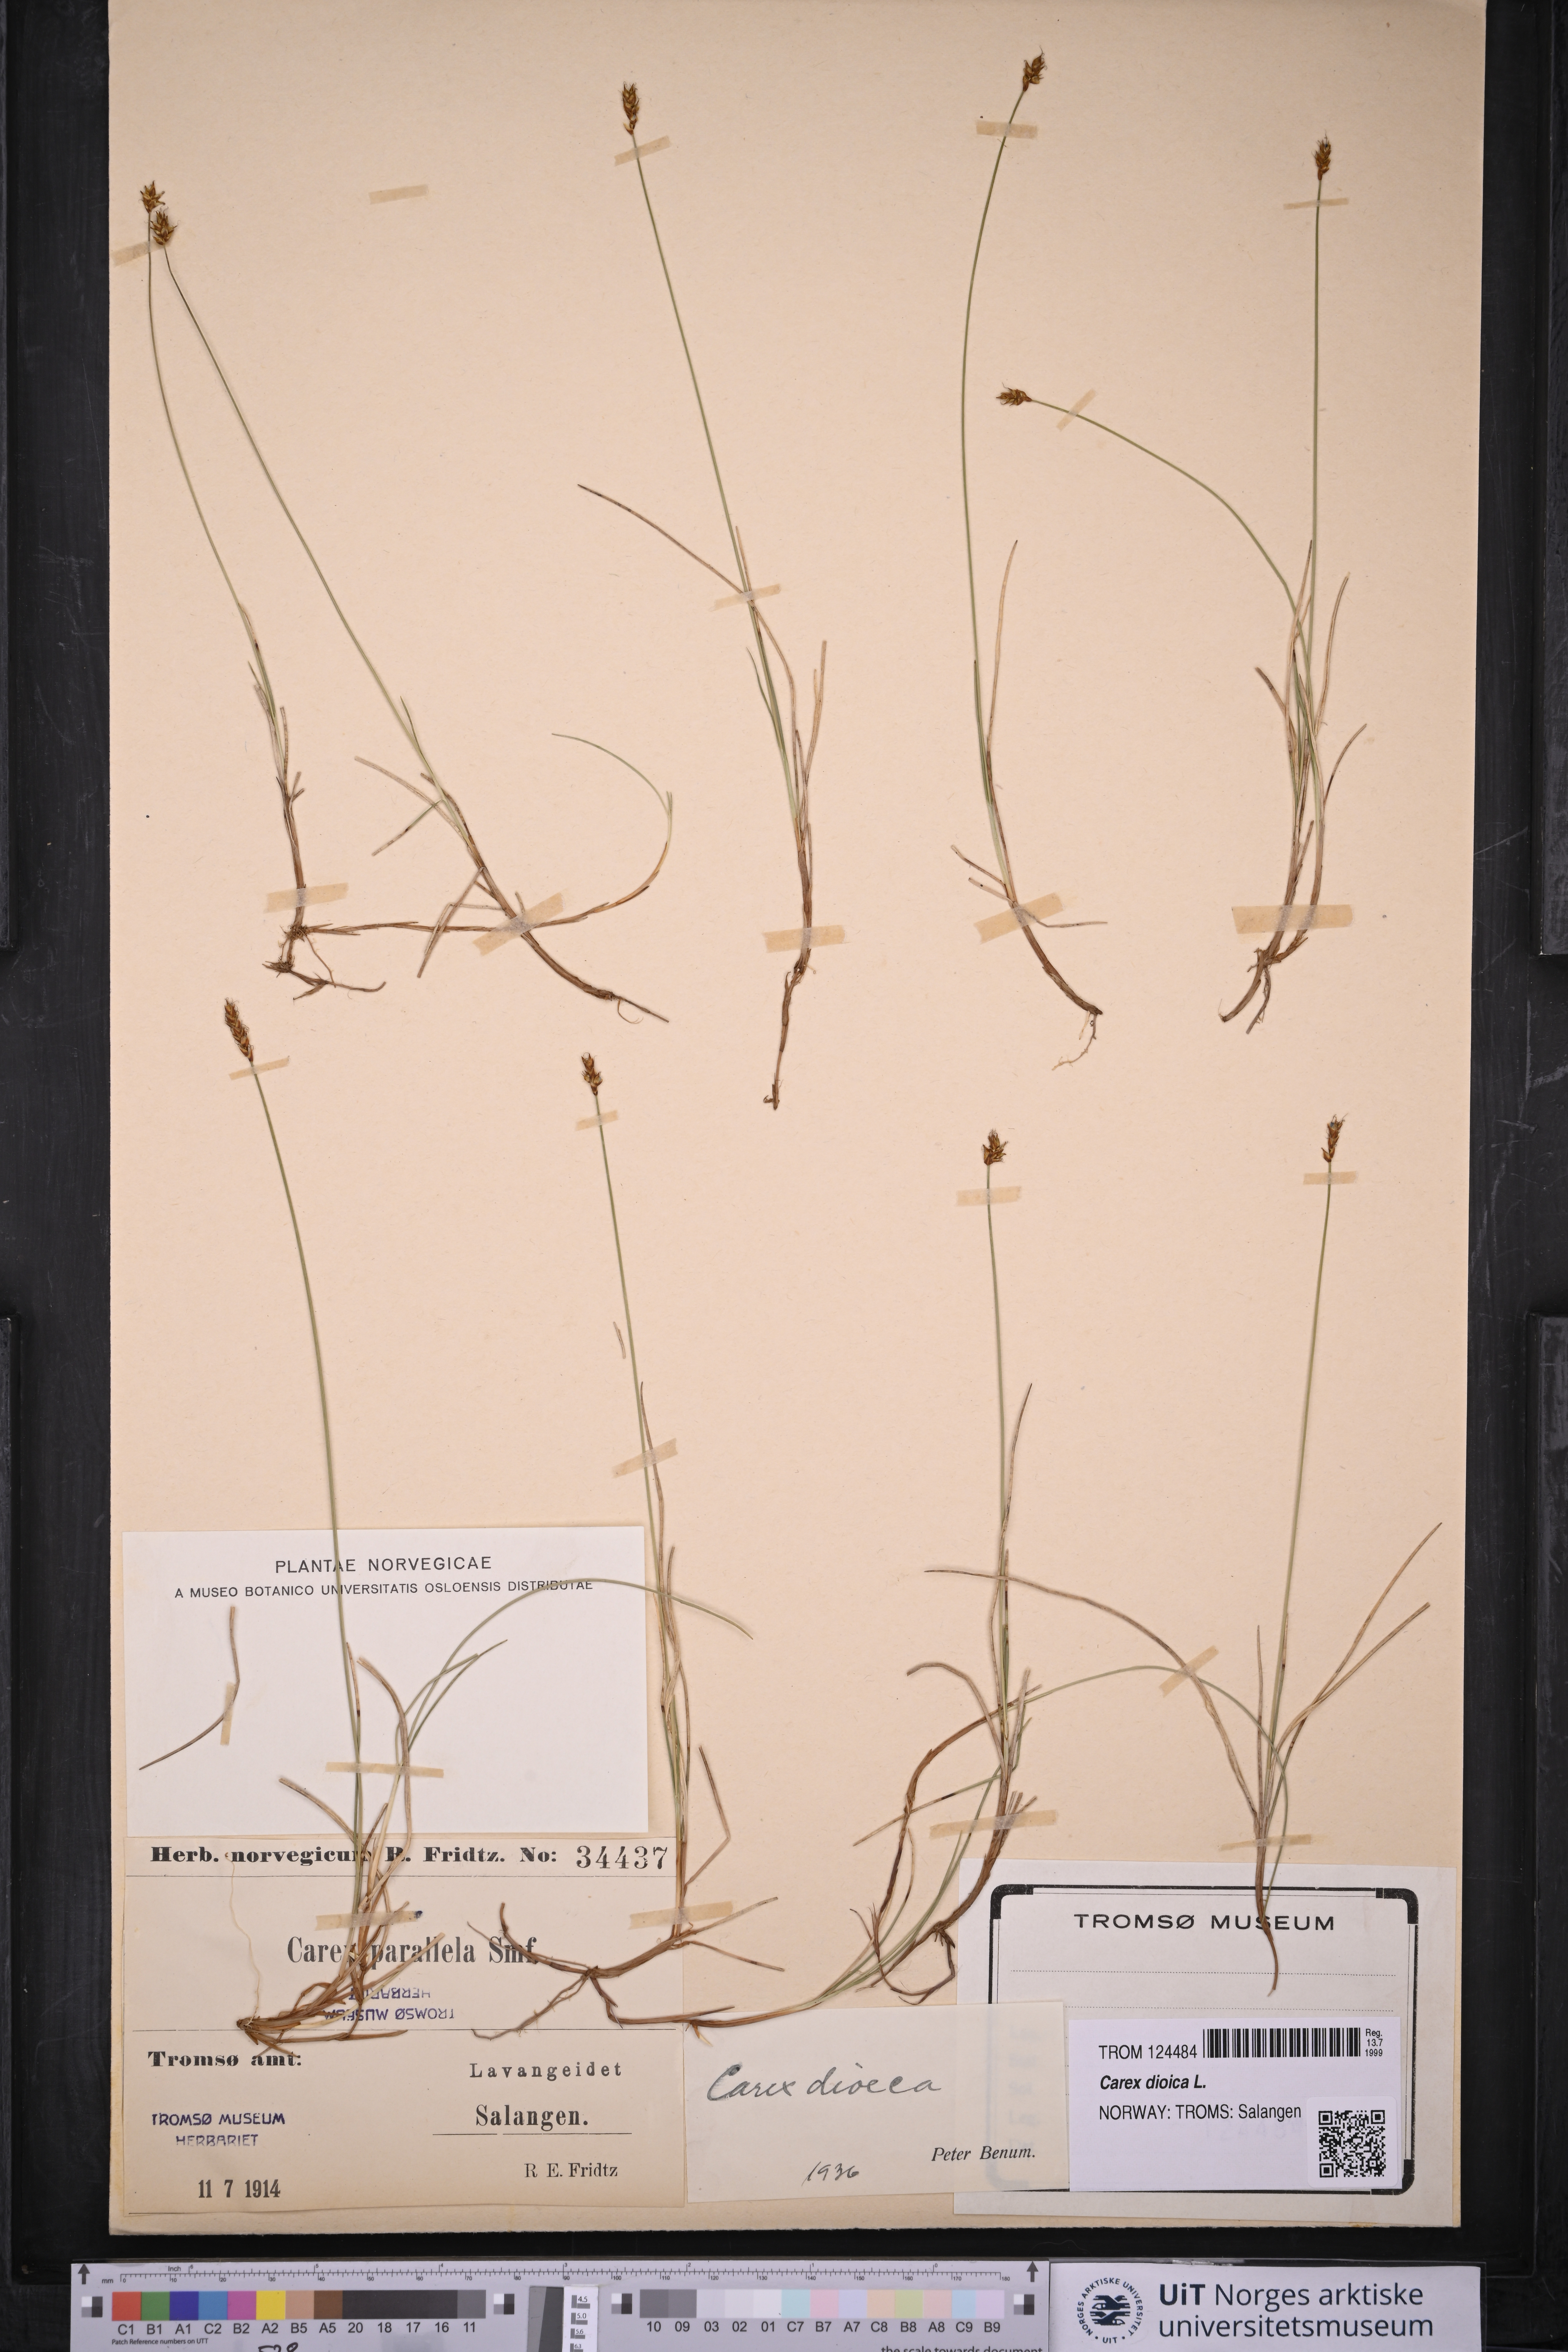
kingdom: Plantae
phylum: Tracheophyta
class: Liliopsida
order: Poales
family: Cyperaceae
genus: Carex
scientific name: Carex dioica
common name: Dioecious sedge
